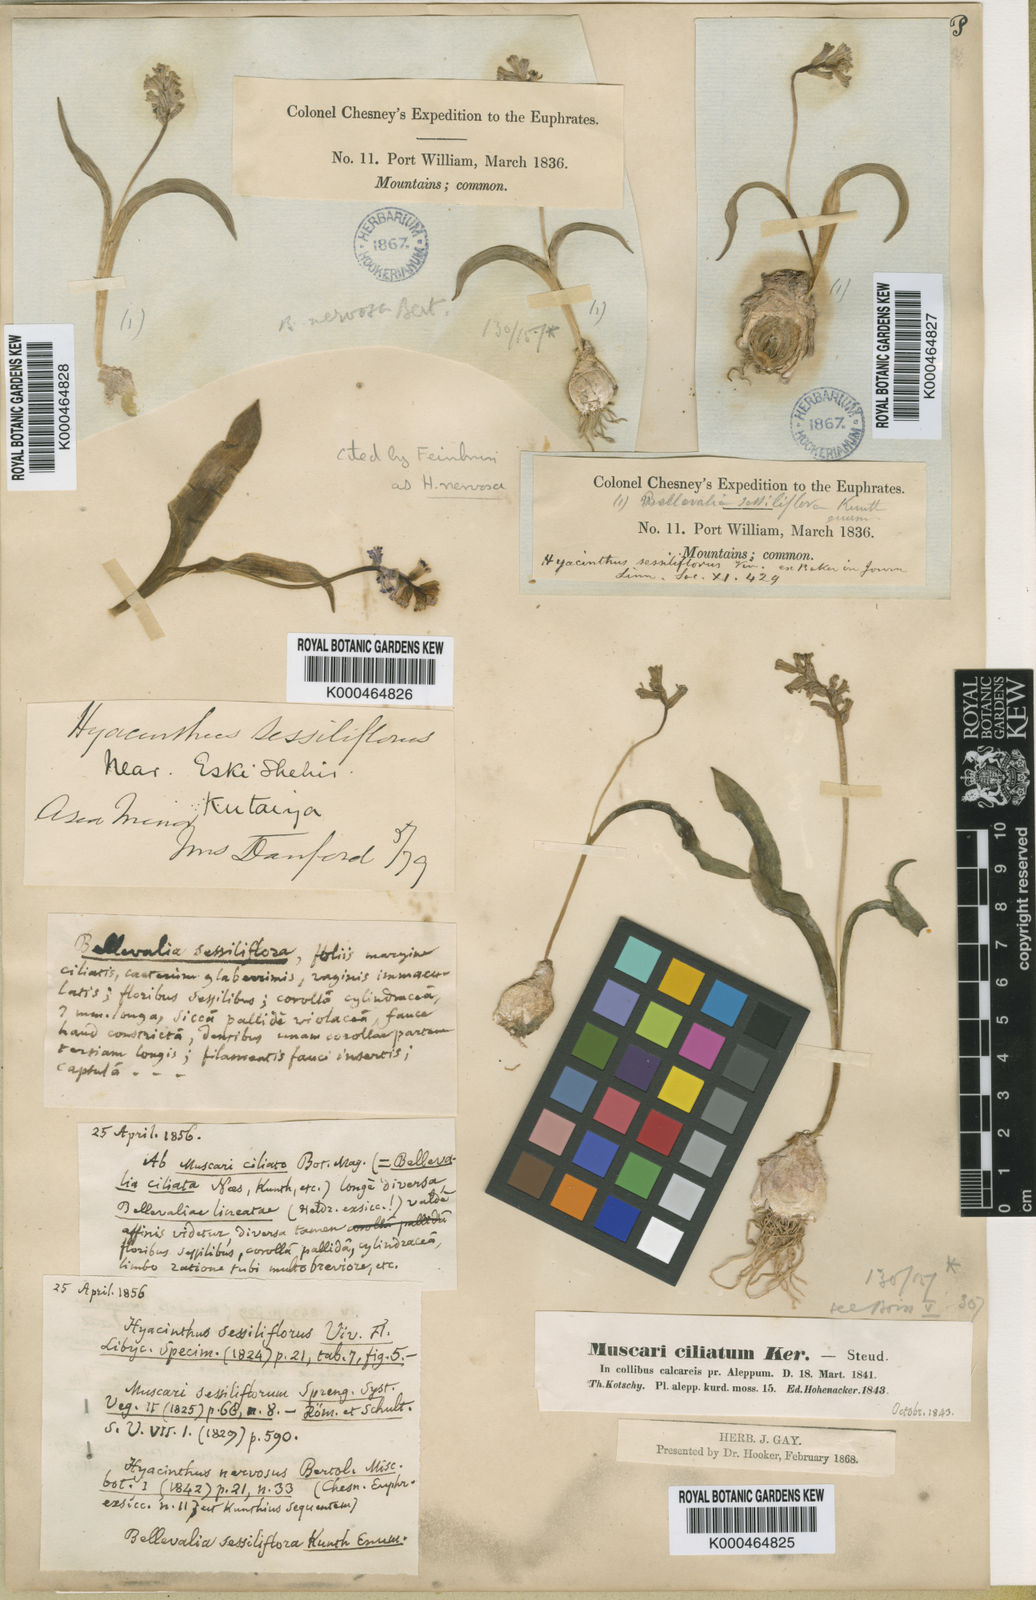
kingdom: Plantae
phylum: Tracheophyta
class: Liliopsida
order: Asparagales
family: Asparagaceae
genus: Hyacinthella
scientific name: Hyacinthella nervosa
